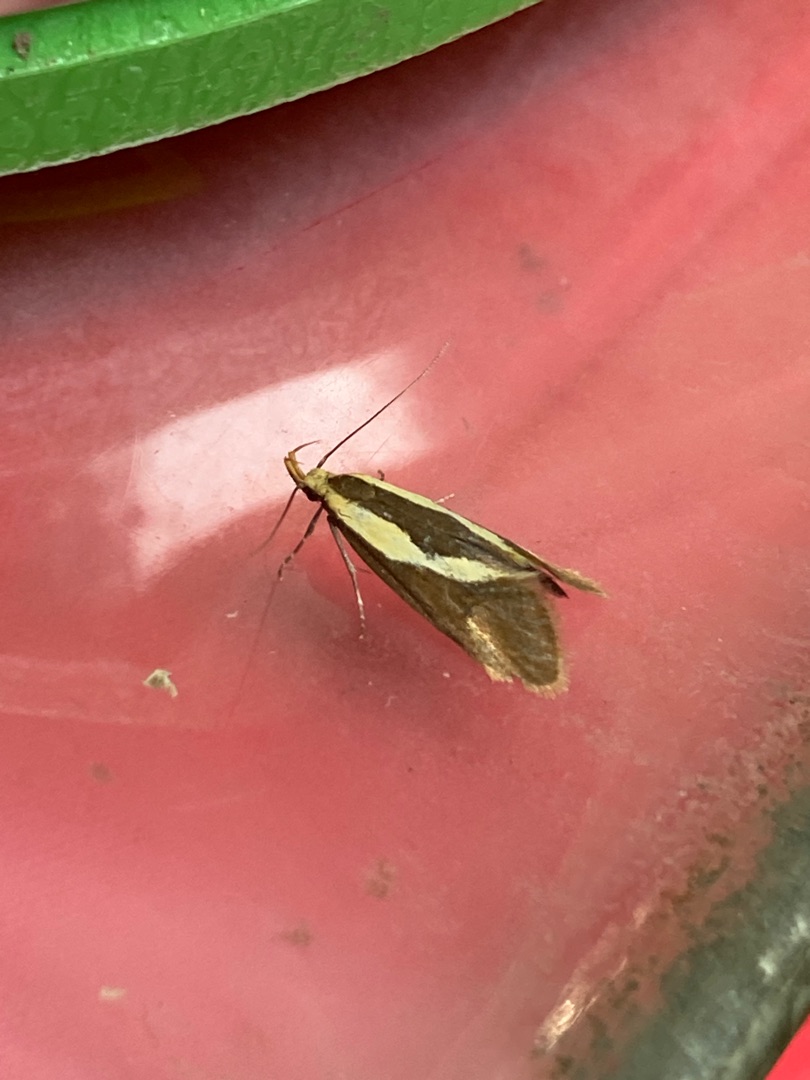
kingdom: Animalia
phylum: Arthropoda
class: Insecta
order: Lepidoptera
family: Oecophoridae
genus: Harpella
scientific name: Harpella forficella
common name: Kæmpeprydvinge
